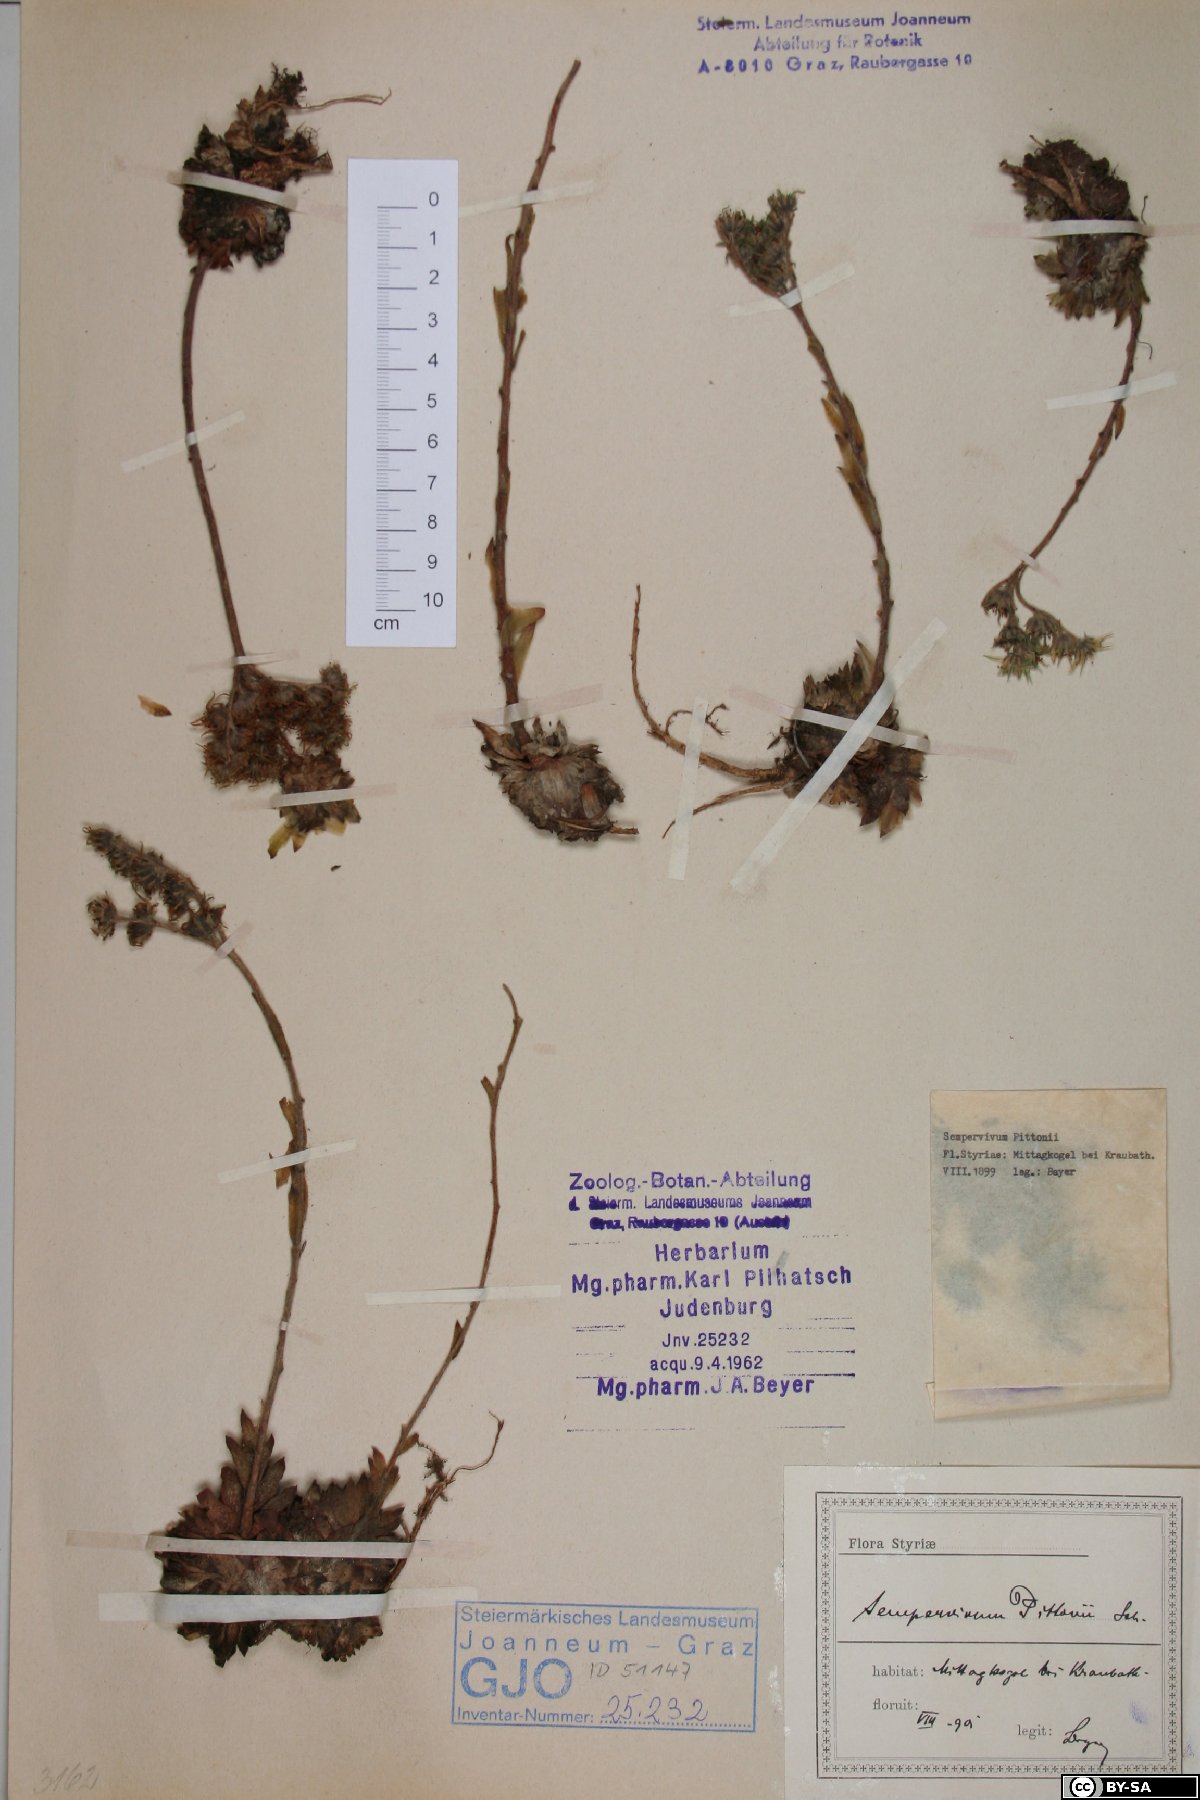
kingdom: Plantae
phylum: Tracheophyta
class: Magnoliopsida
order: Saxifragales
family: Crassulaceae
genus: Sempervivum
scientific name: Sempervivum pittonii
